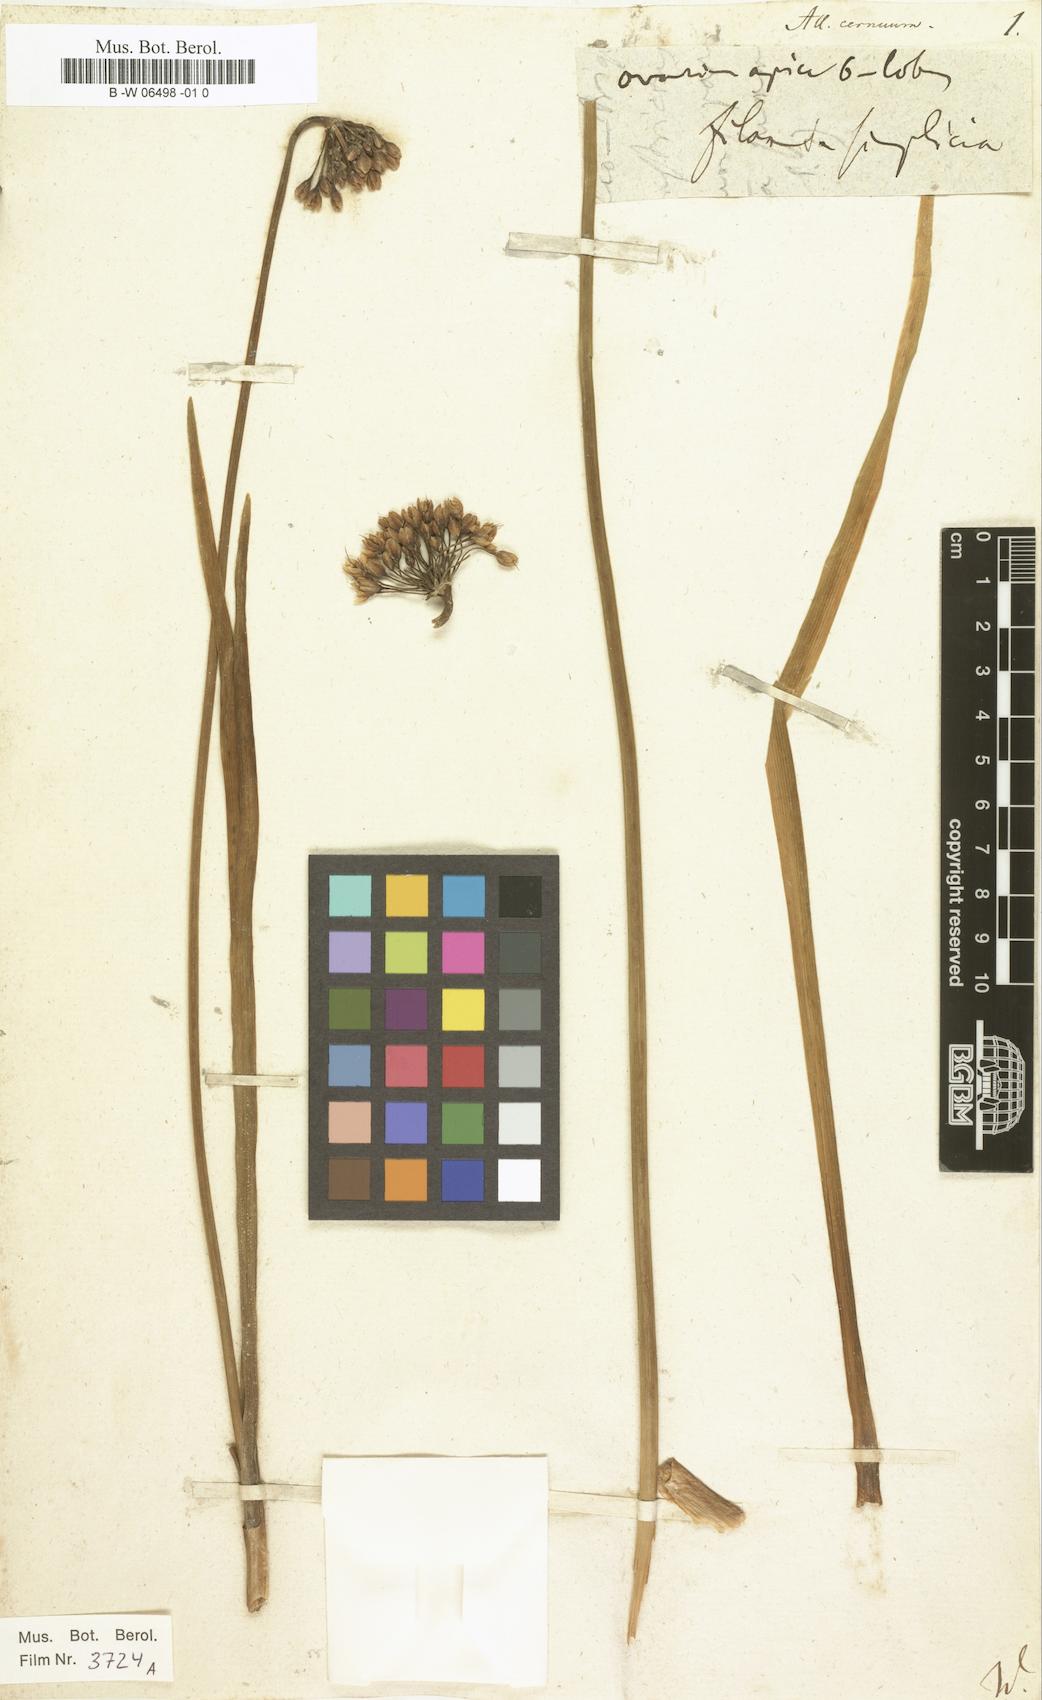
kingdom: Plantae
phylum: Tracheophyta
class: Liliopsida
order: Asparagales
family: Amaryllidaceae
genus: Allium
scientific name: Allium cernuum
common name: Nodding onion
